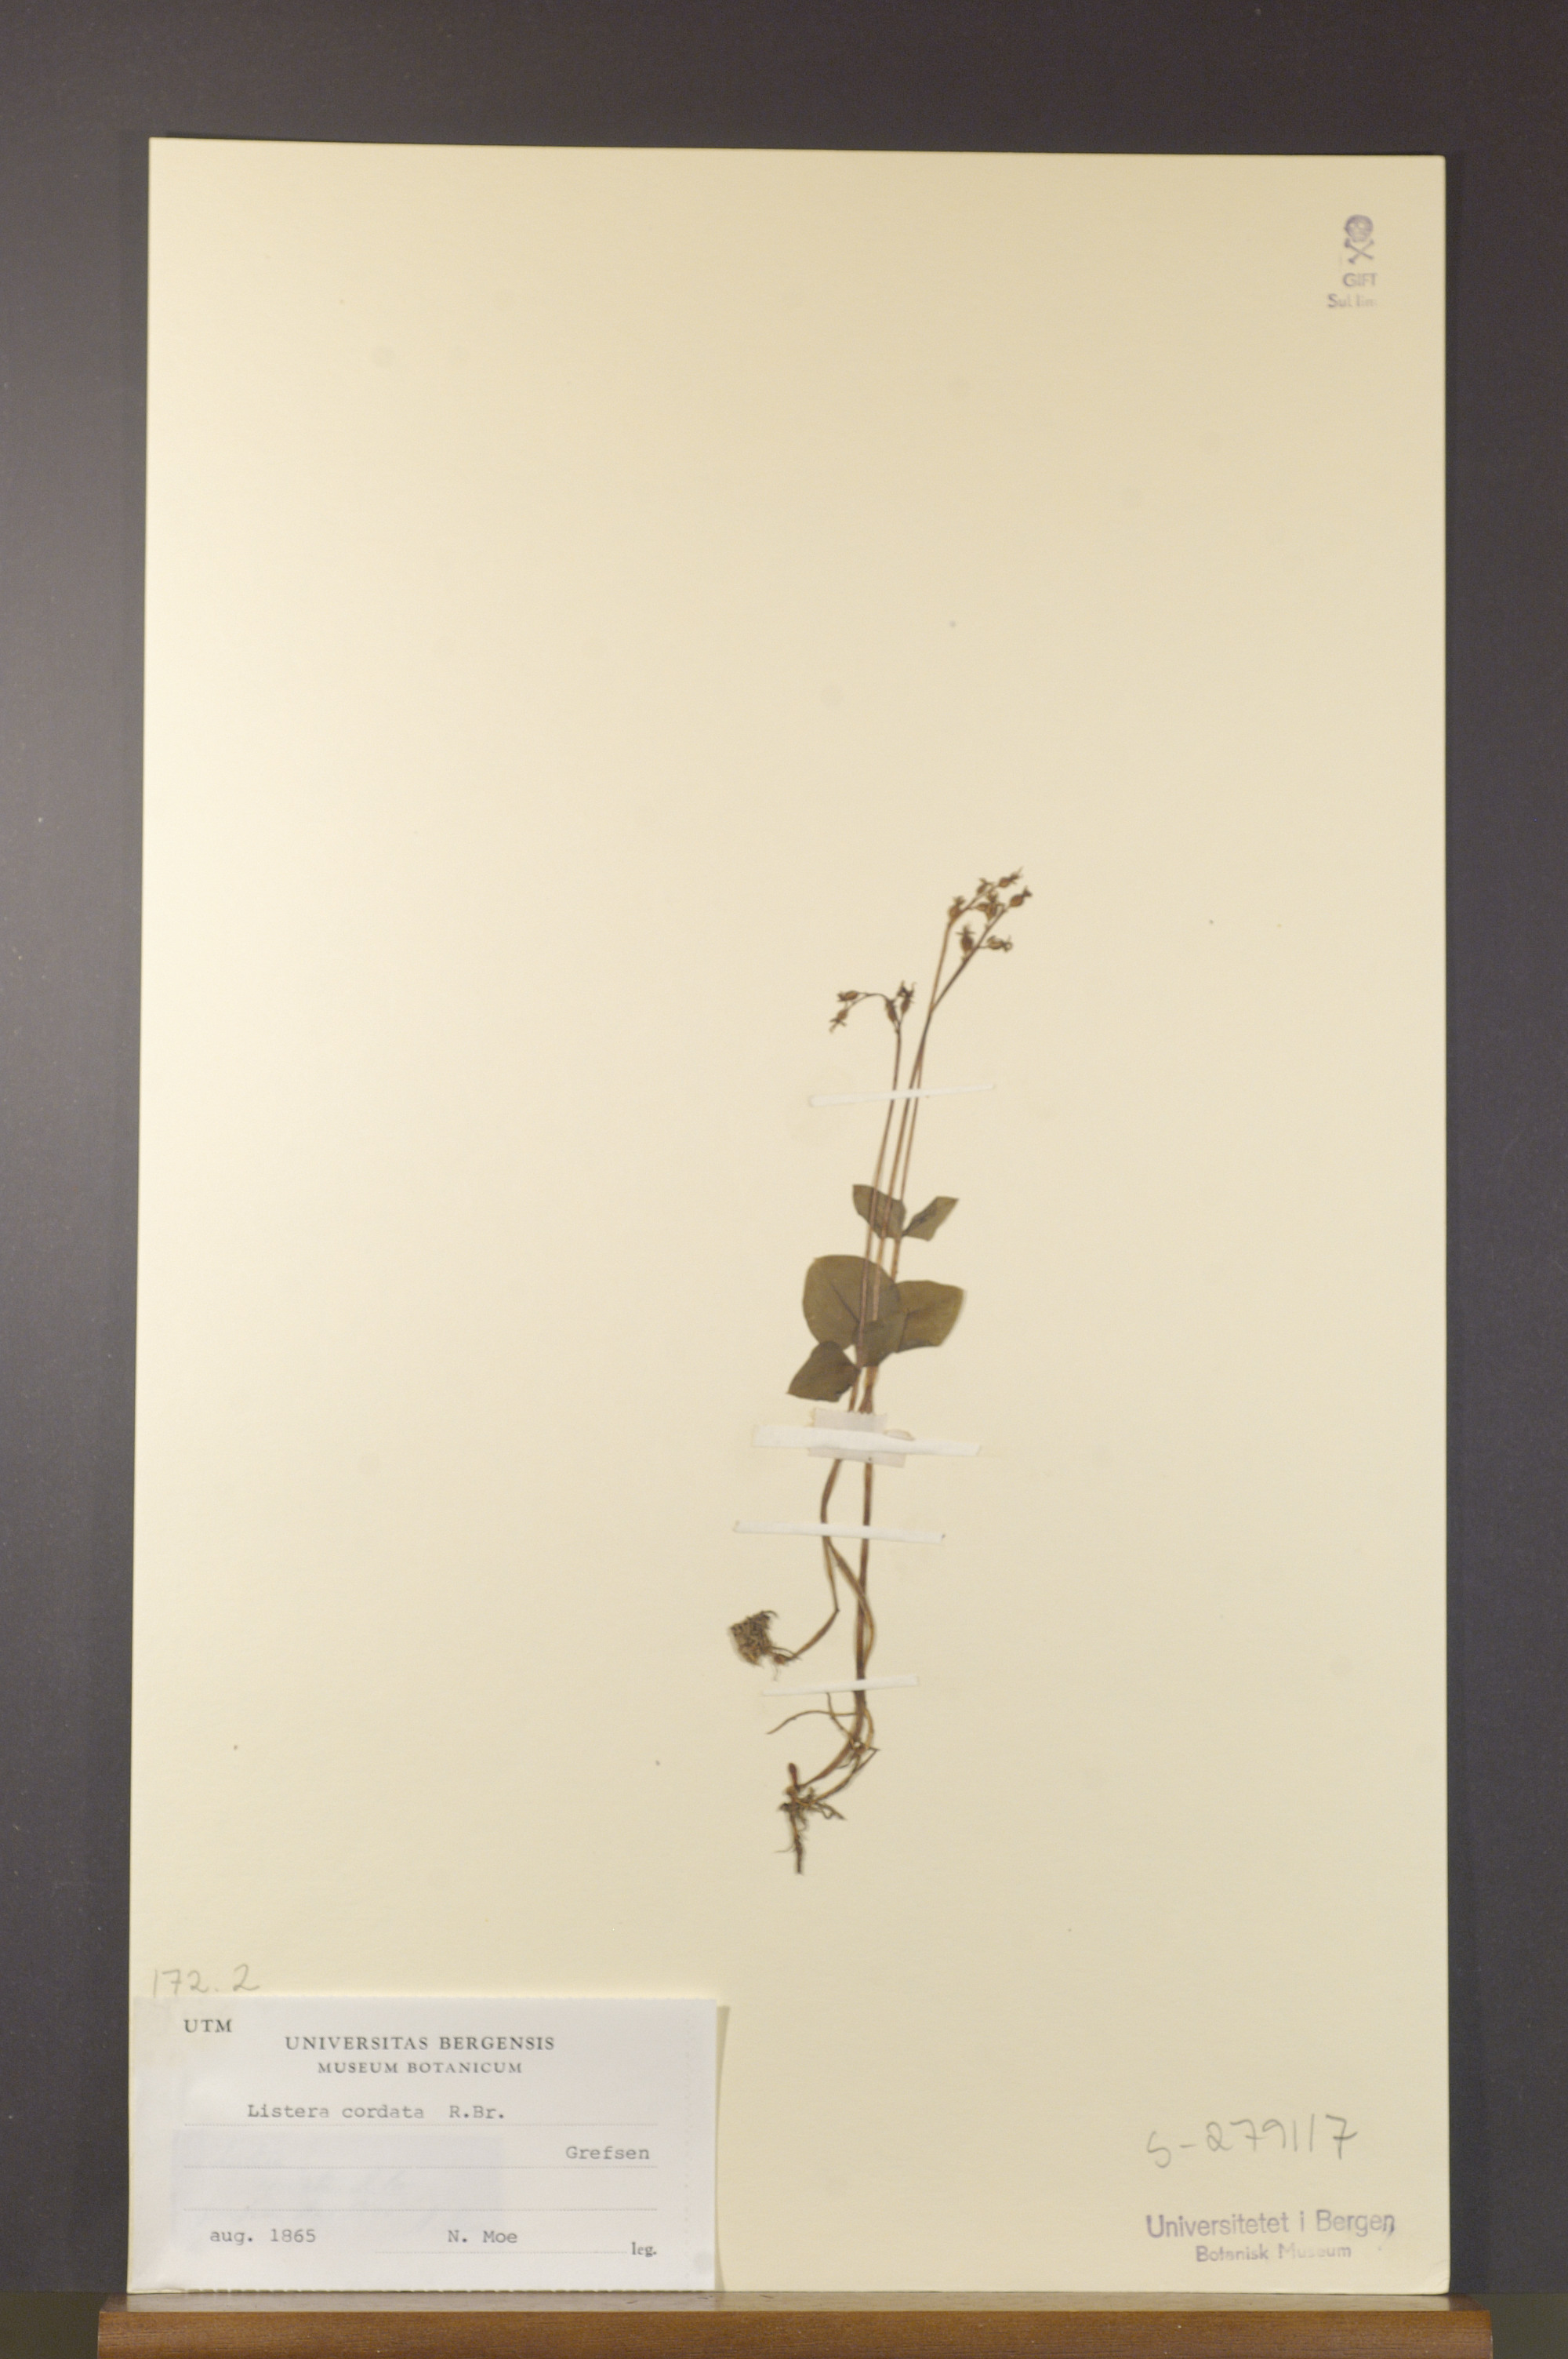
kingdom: Plantae
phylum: Tracheophyta
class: Liliopsida
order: Asparagales
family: Orchidaceae
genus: Neottia
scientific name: Neottia cordata
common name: Lesser twayblade
